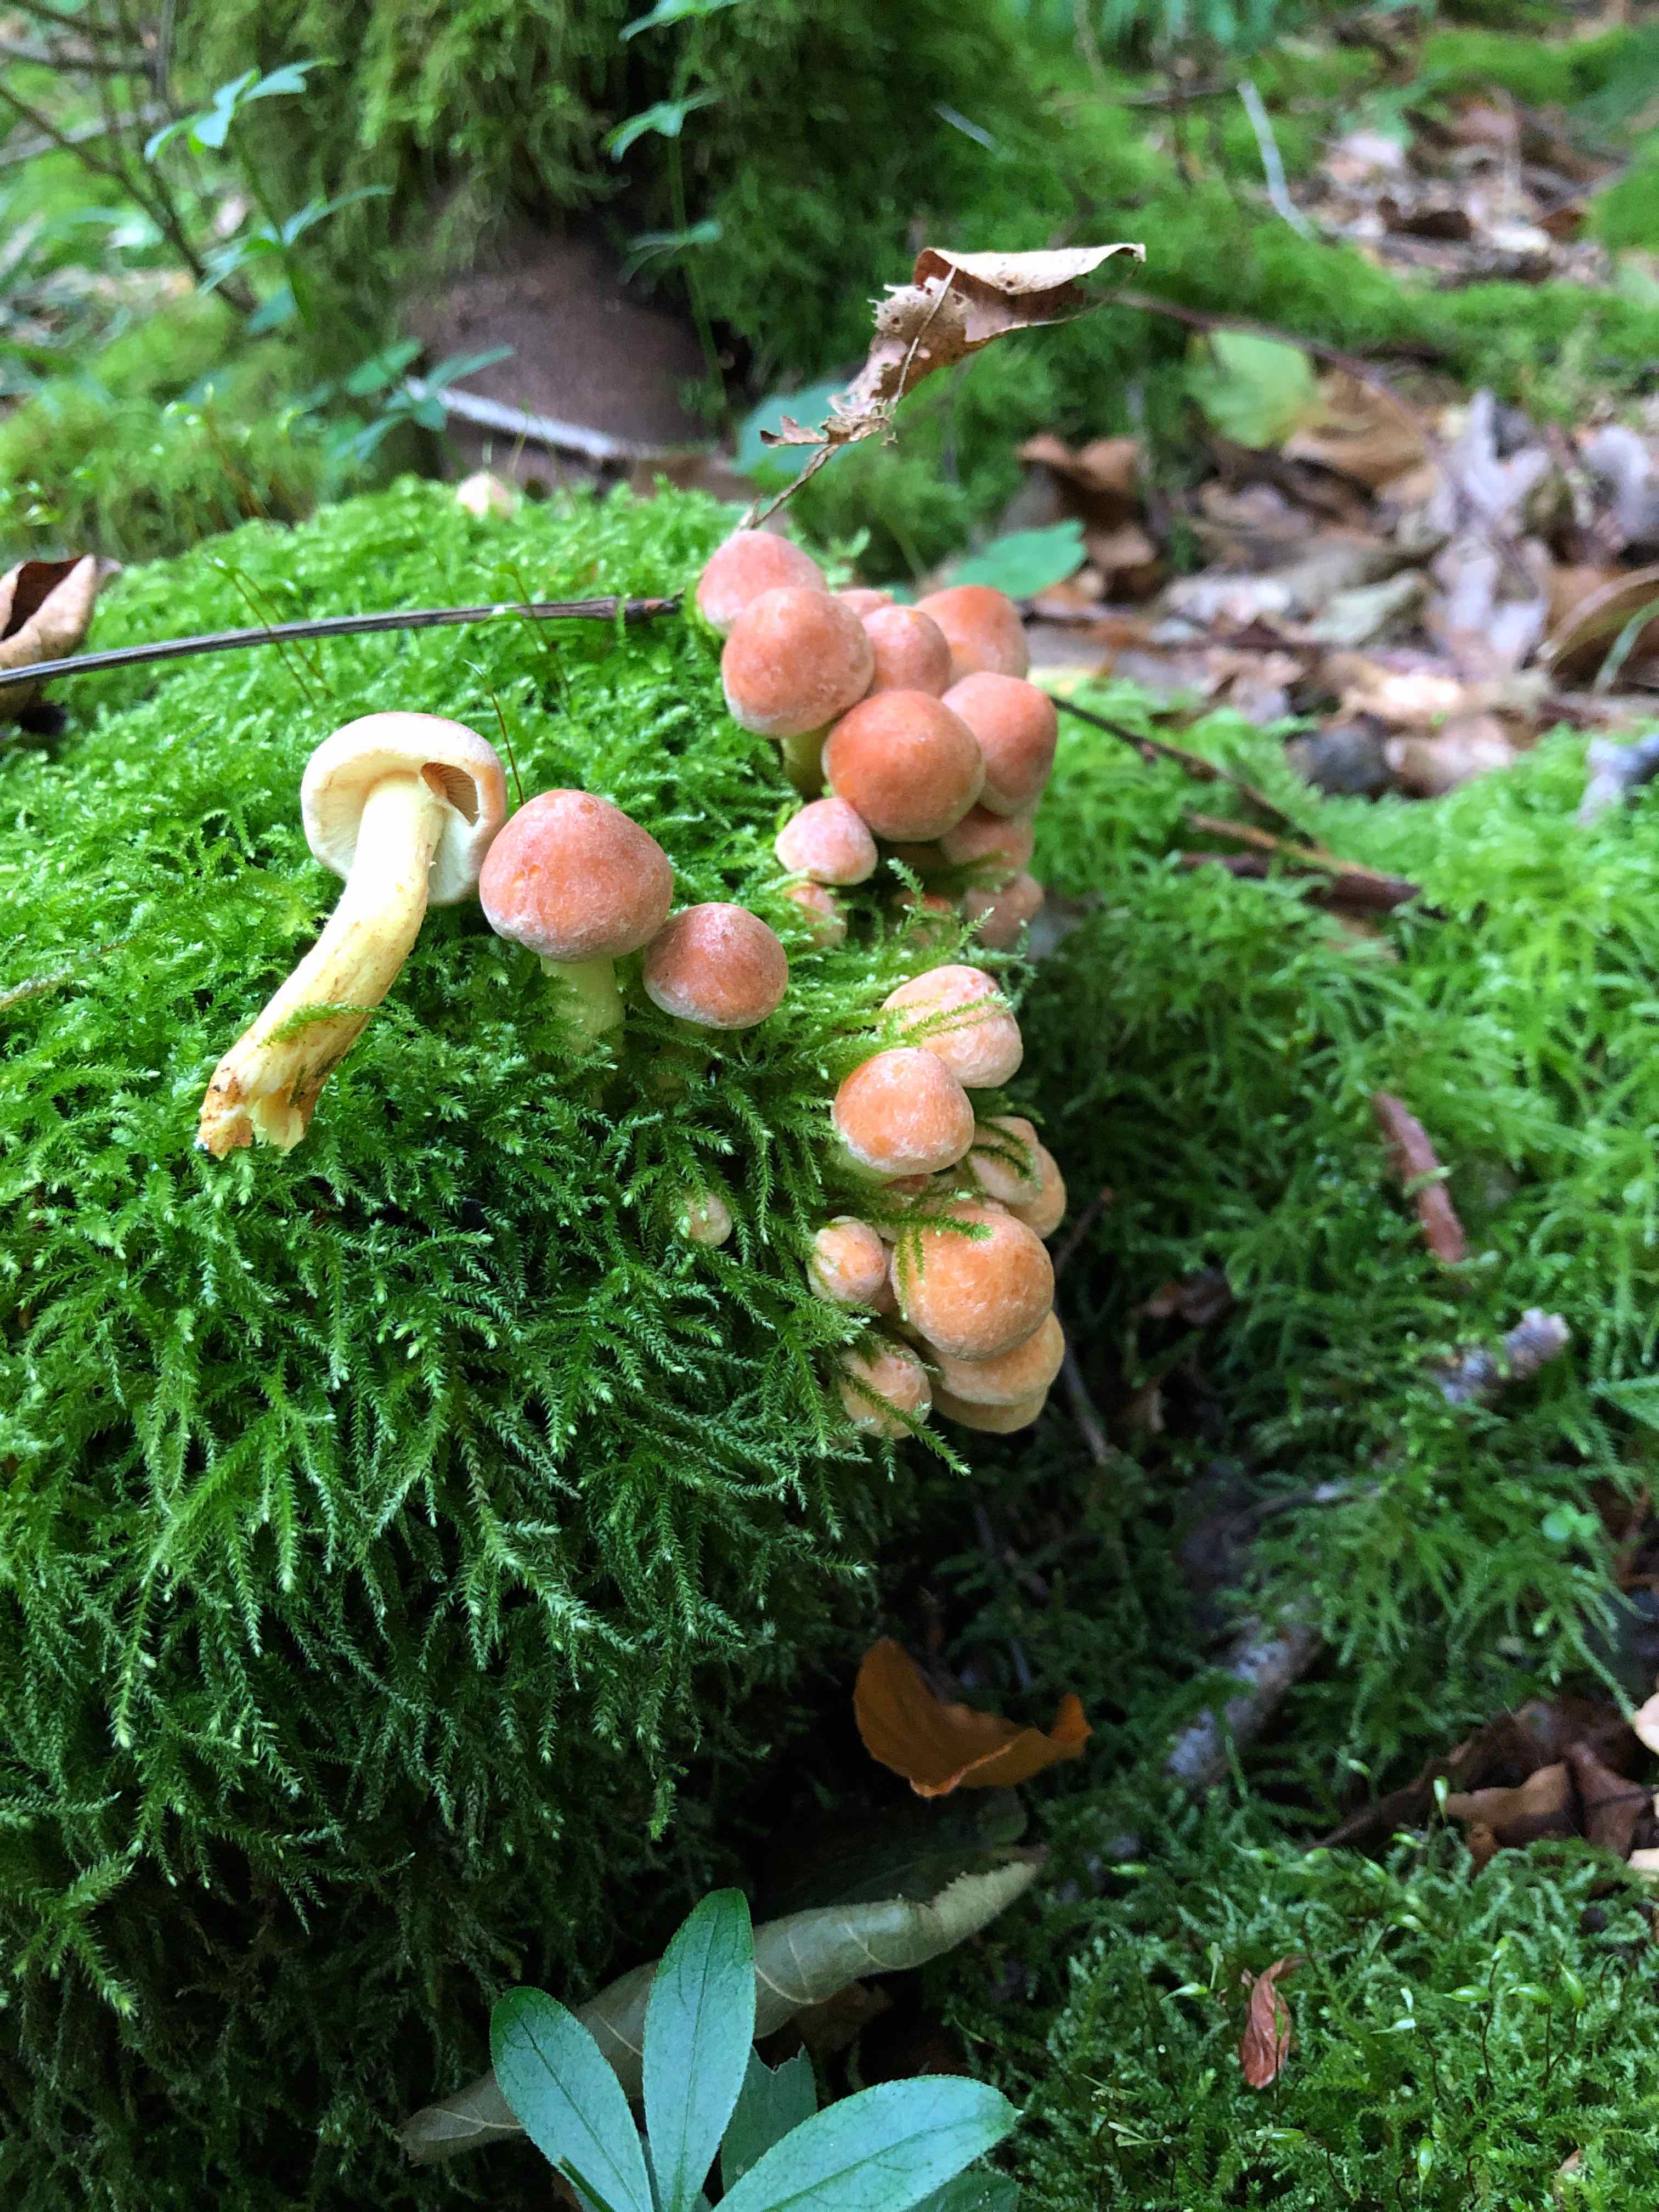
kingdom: Fungi
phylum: Basidiomycota
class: Agaricomycetes
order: Agaricales
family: Strophariaceae
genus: Hypholoma
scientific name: Hypholoma fasciculare
